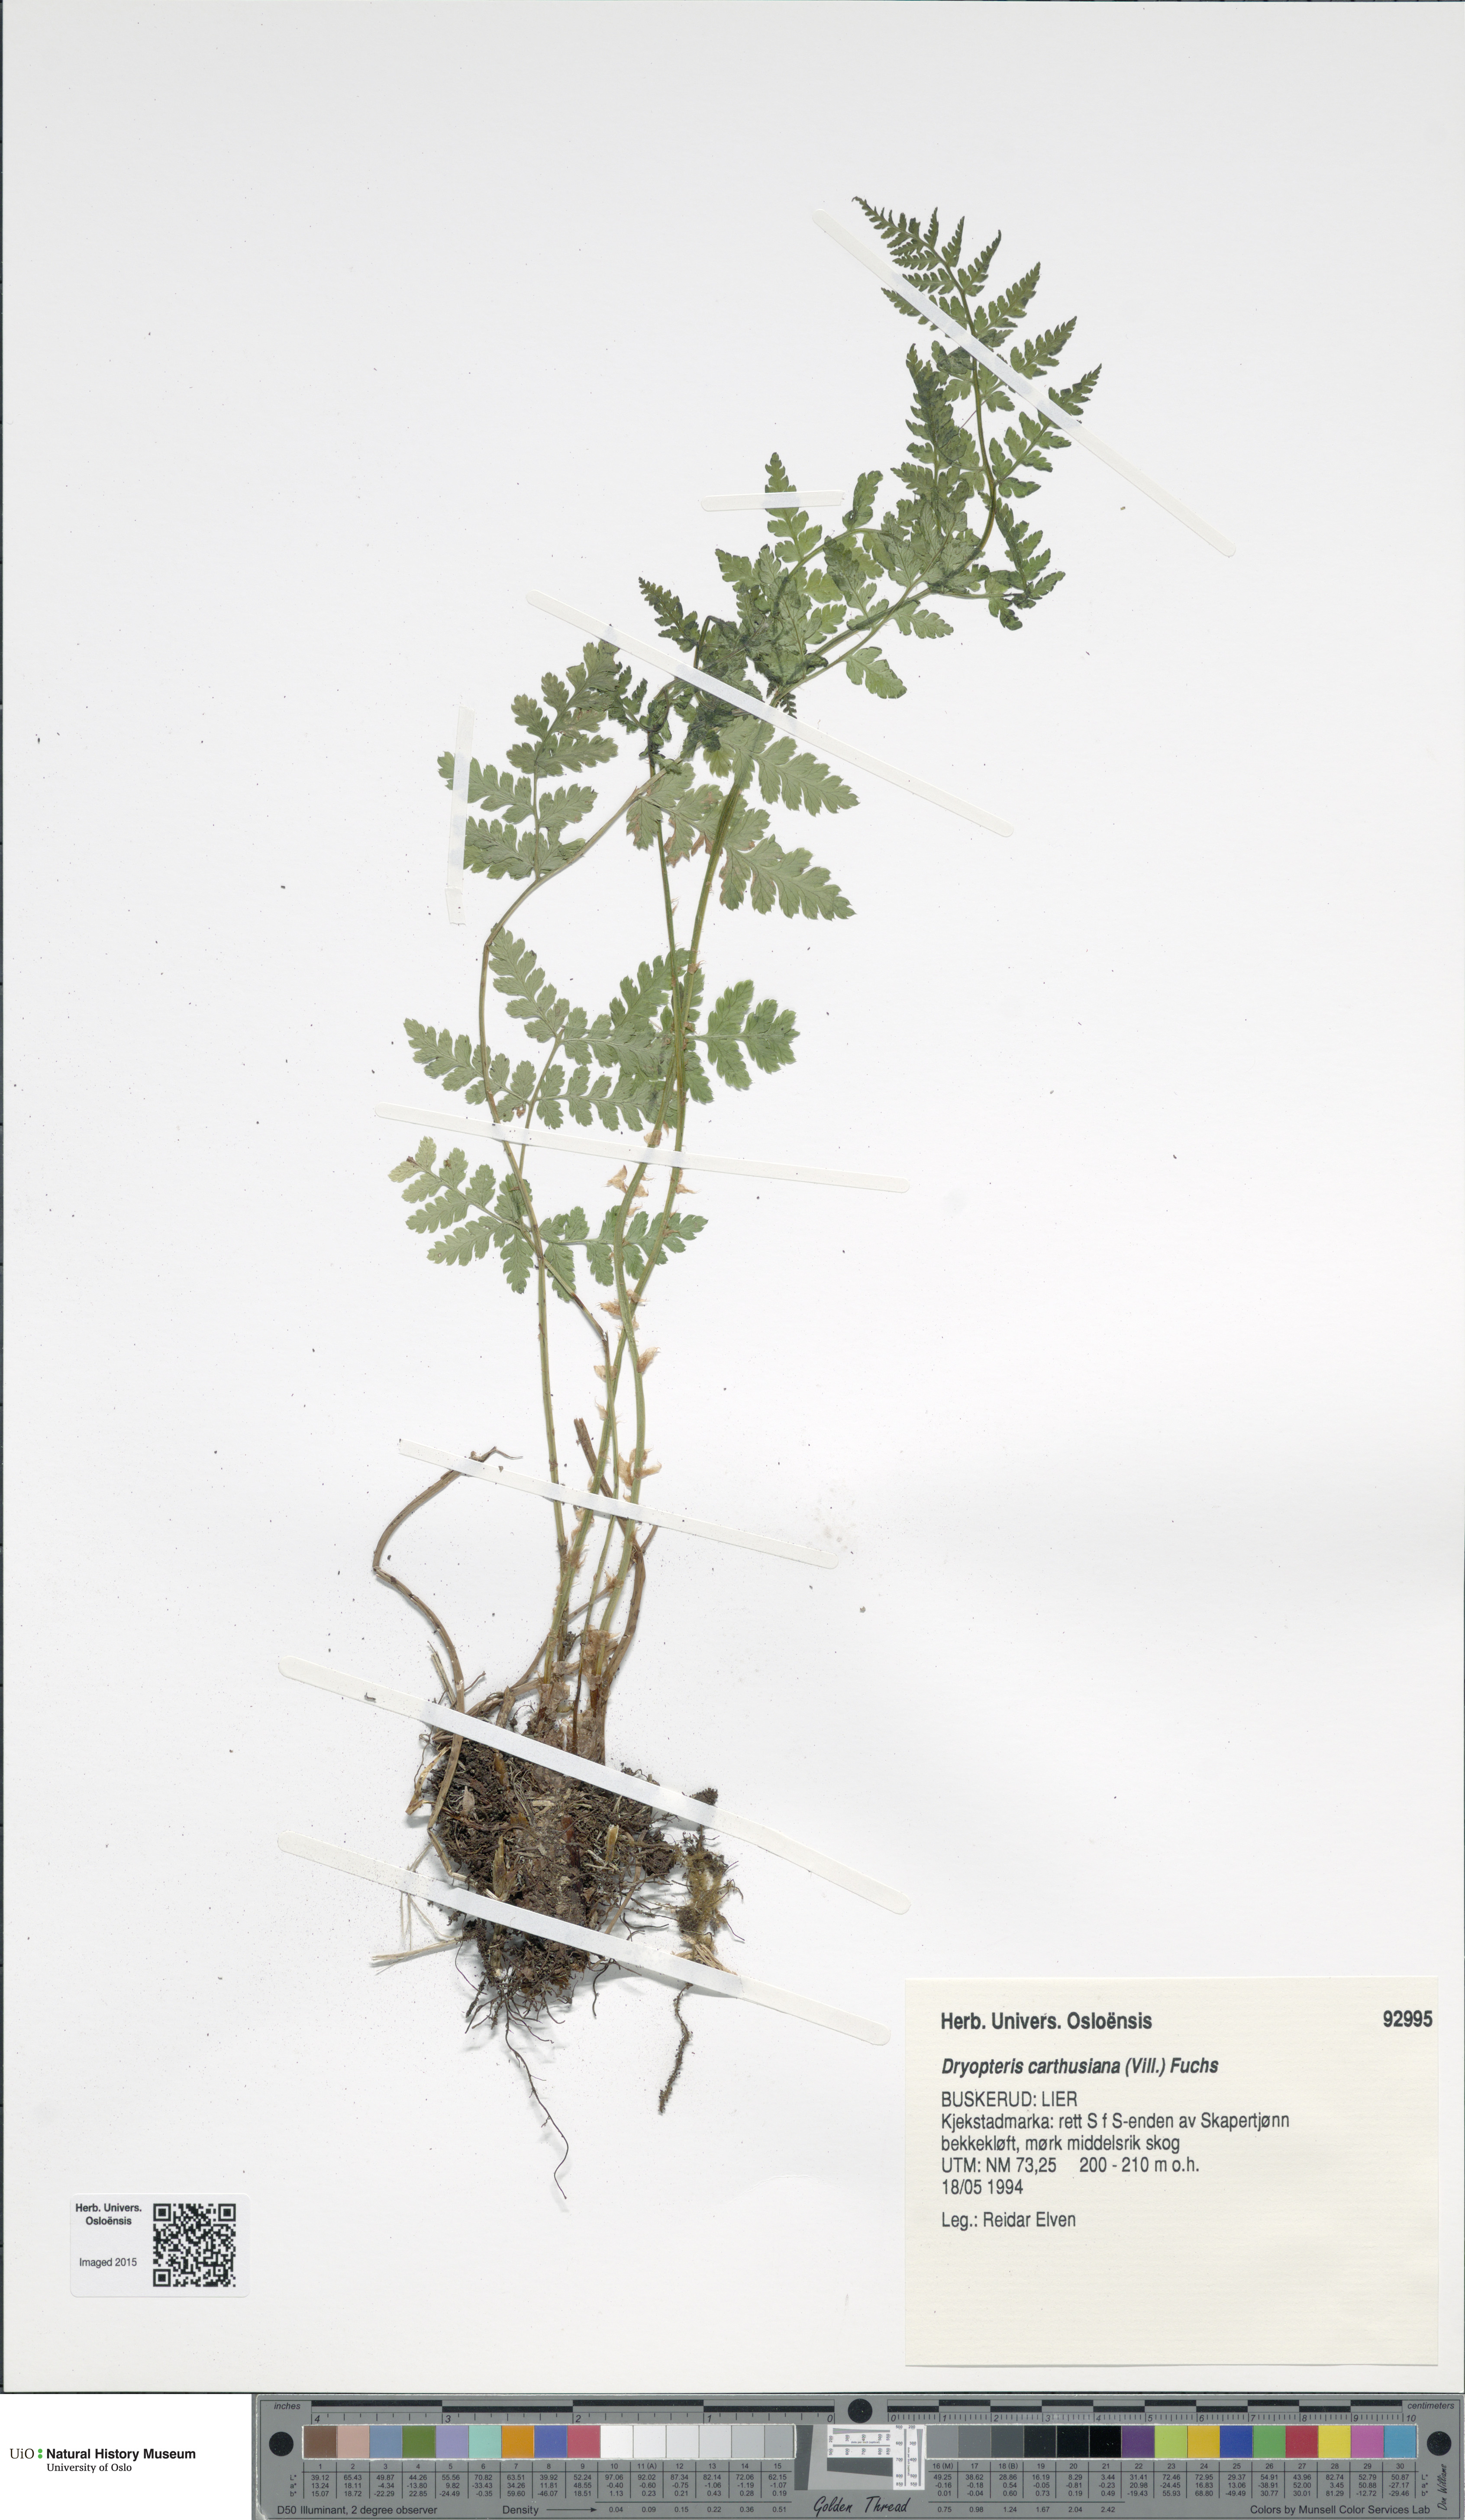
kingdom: Plantae
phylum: Tracheophyta
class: Polypodiopsida
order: Polypodiales
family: Dryopteridaceae
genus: Dryopteris
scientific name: Dryopteris carthusiana
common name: Narrow buckler-fern
